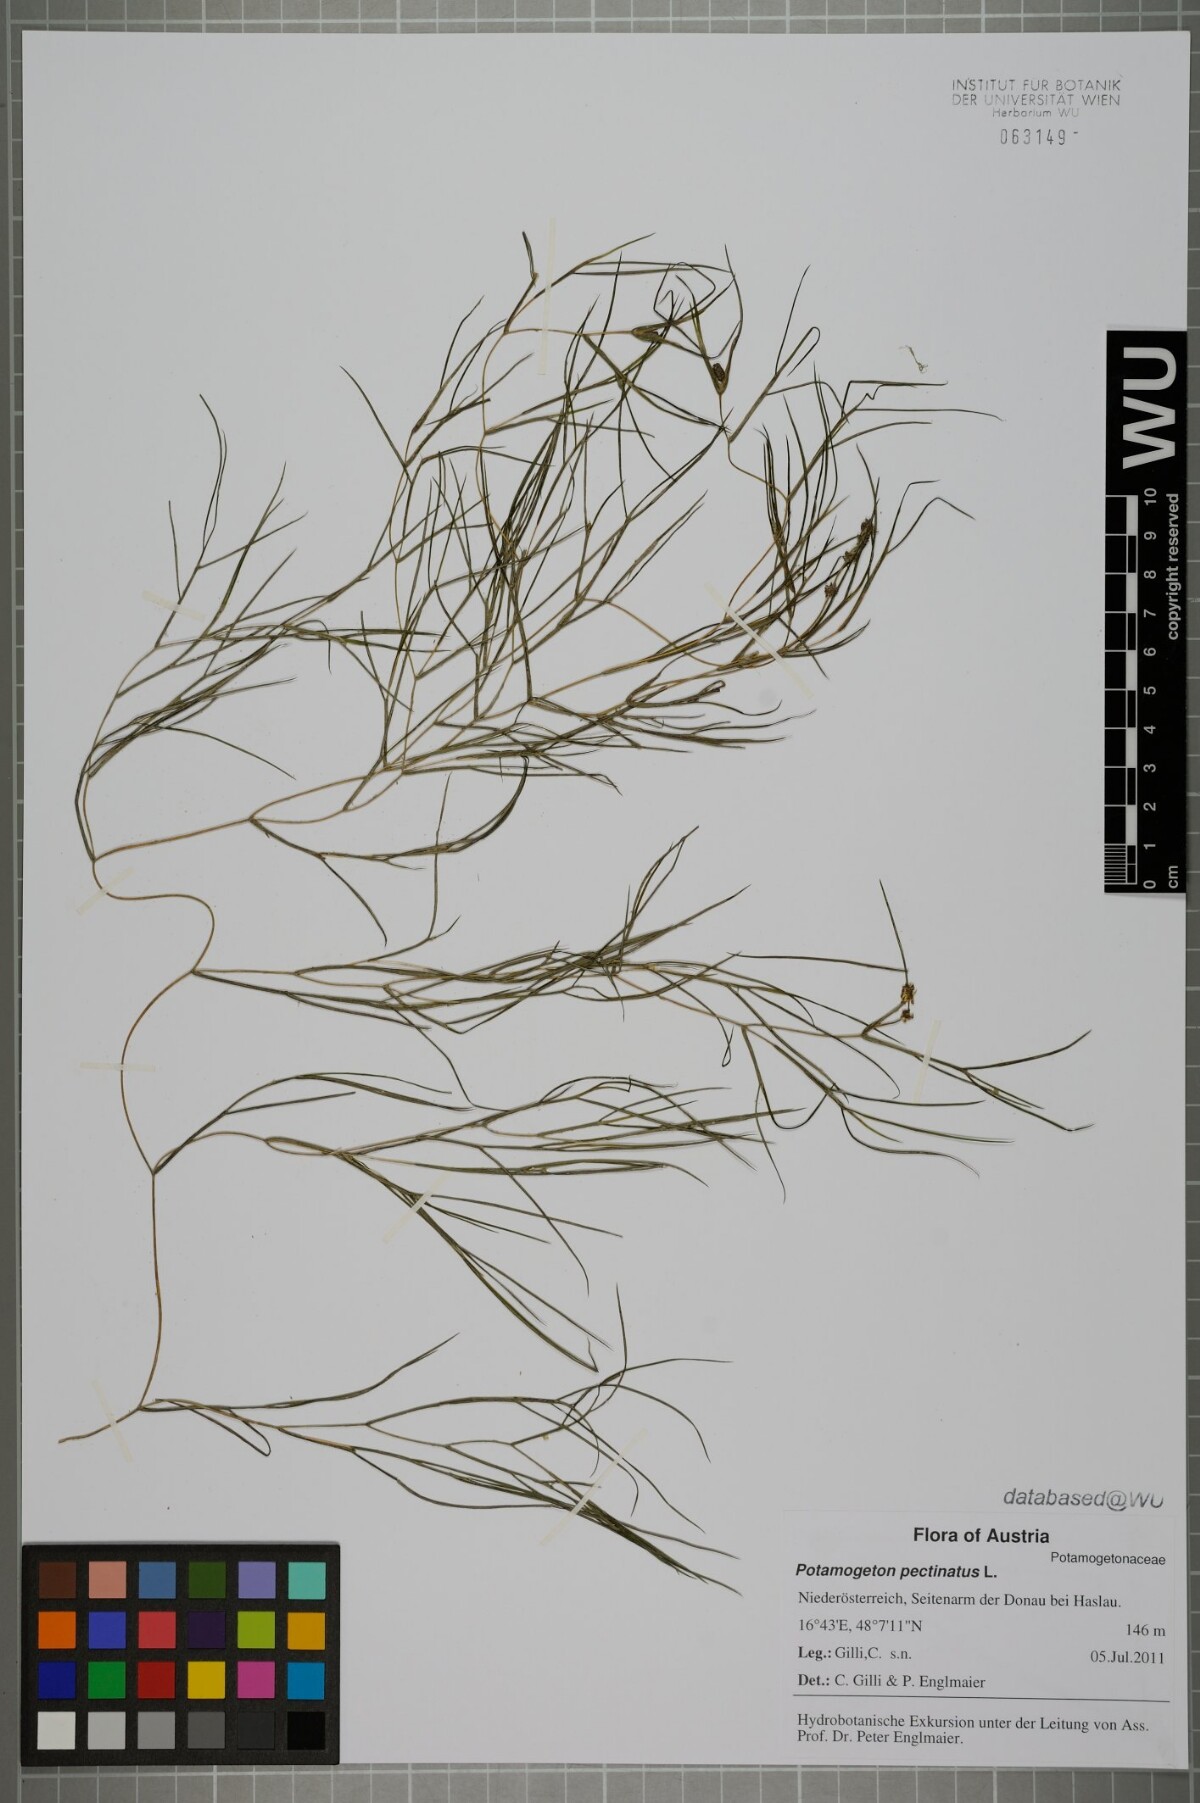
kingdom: Plantae
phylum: Tracheophyta
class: Liliopsida
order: Alismatales
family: Potamogetonaceae
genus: Stuckenia
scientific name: Stuckenia pectinata
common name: Sago pondweed
